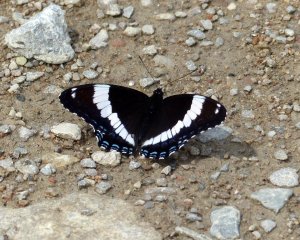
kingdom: Animalia
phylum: Arthropoda
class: Insecta
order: Lepidoptera
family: Nymphalidae
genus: Limenitis
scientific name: Limenitis arthemis
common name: Red-spotted Admiral
